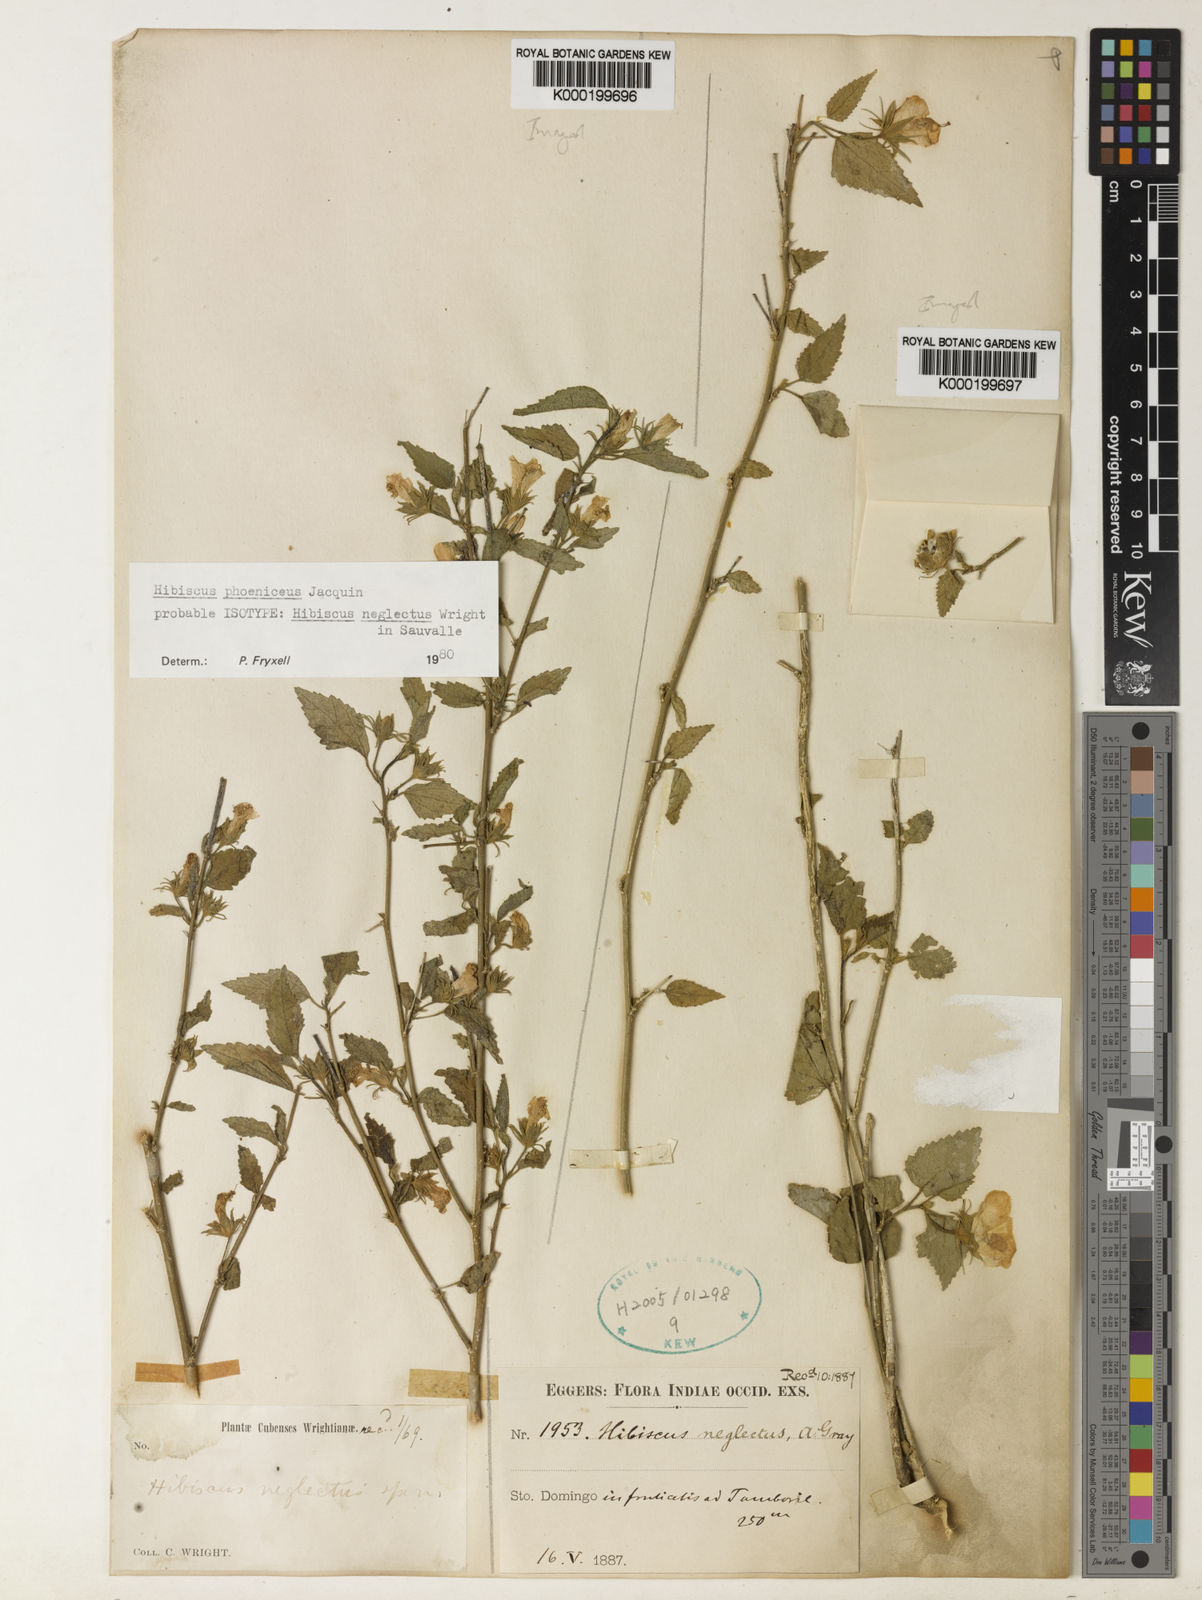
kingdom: Plantae
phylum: Tracheophyta
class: Magnoliopsida
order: Malvales
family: Malvaceae
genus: Hibiscus
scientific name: Hibiscus phoeniceus
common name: Brazilian rosemallow
